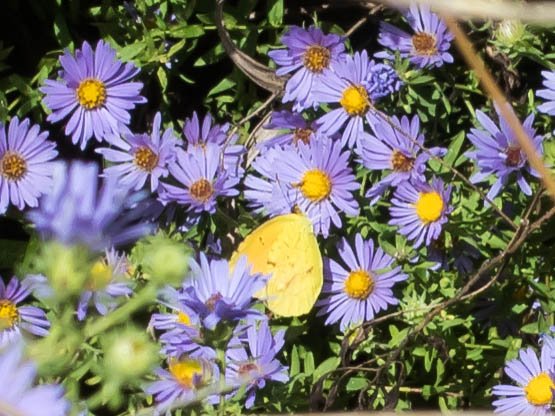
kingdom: Animalia
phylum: Arthropoda
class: Insecta
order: Lepidoptera
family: Pieridae
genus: Abaeis
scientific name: Abaeis nicippe
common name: Sleepy Orange
